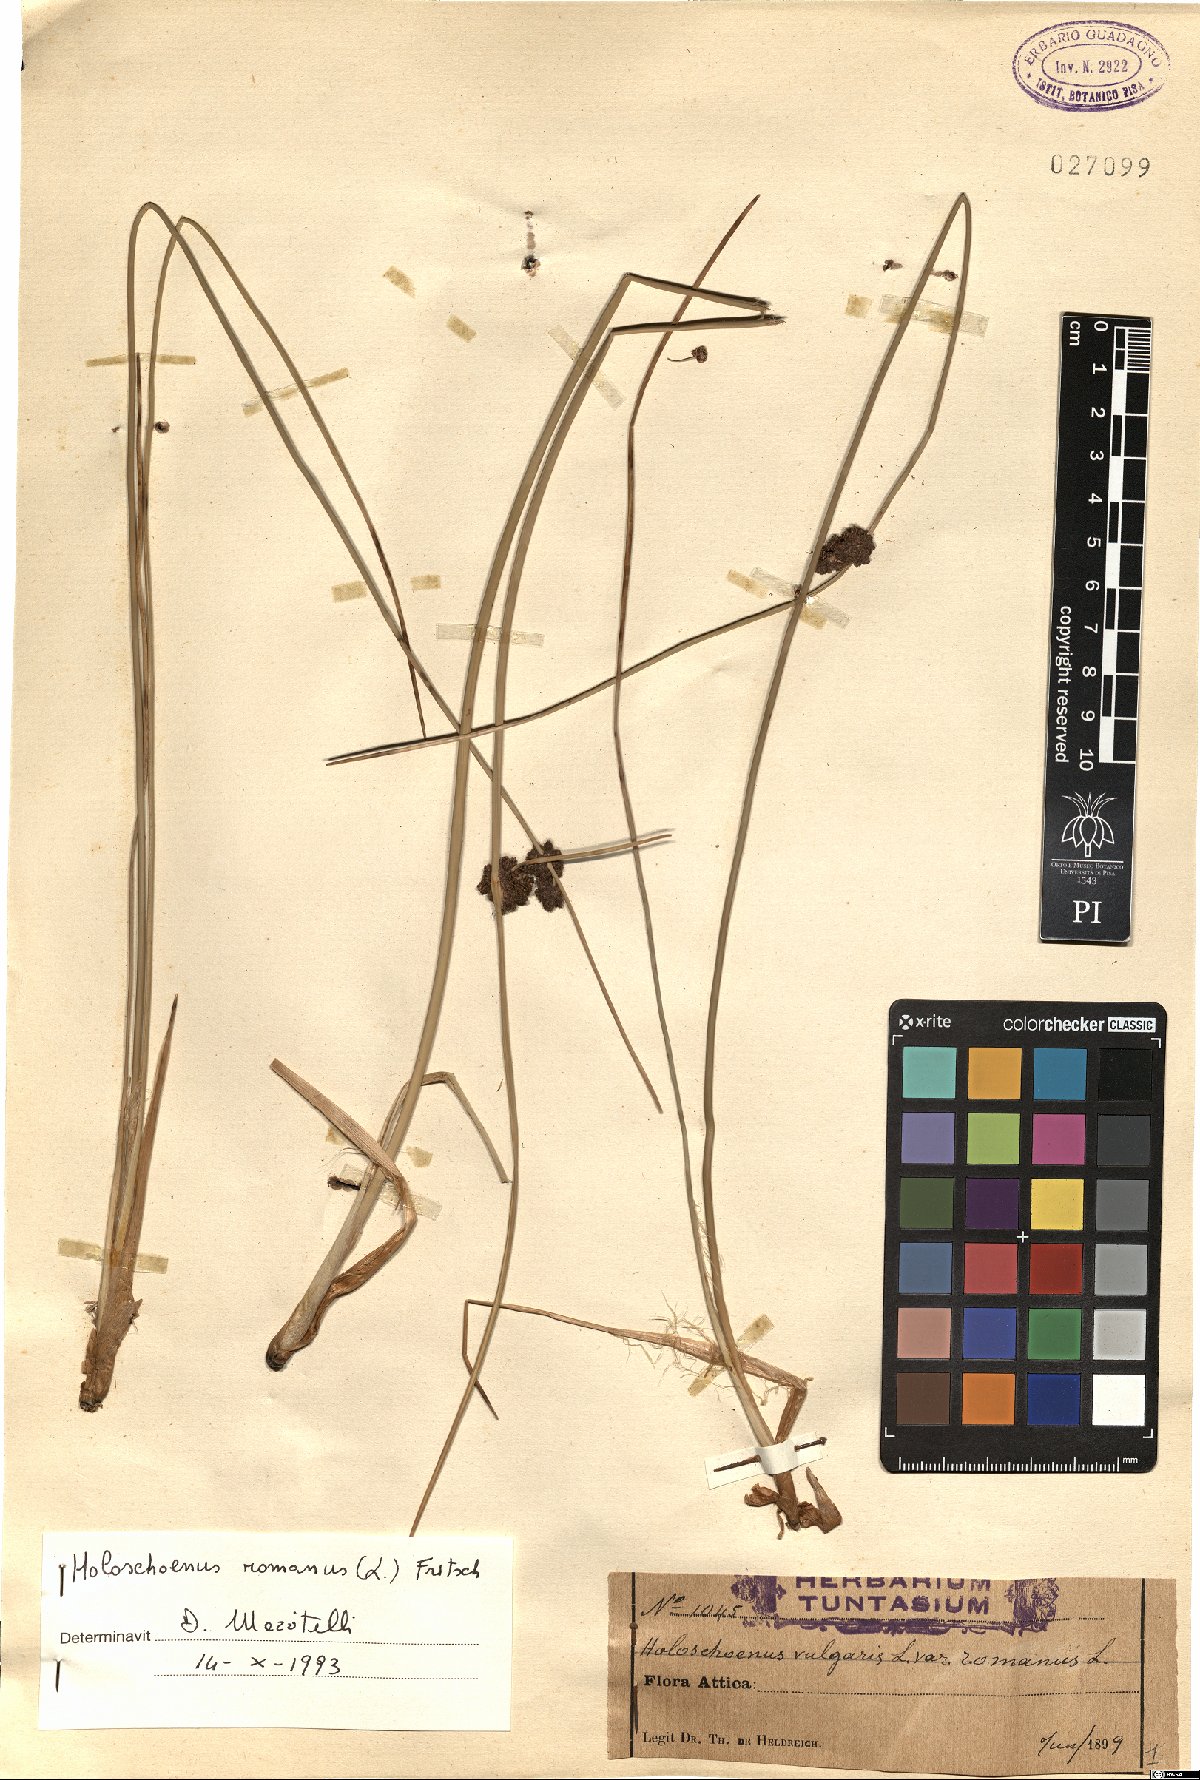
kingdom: Plantae
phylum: Tracheophyta
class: Liliopsida
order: Poales
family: Cyperaceae
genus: Scirpoides
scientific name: Scirpoides holoschoenus
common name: Round-headed club-rush
